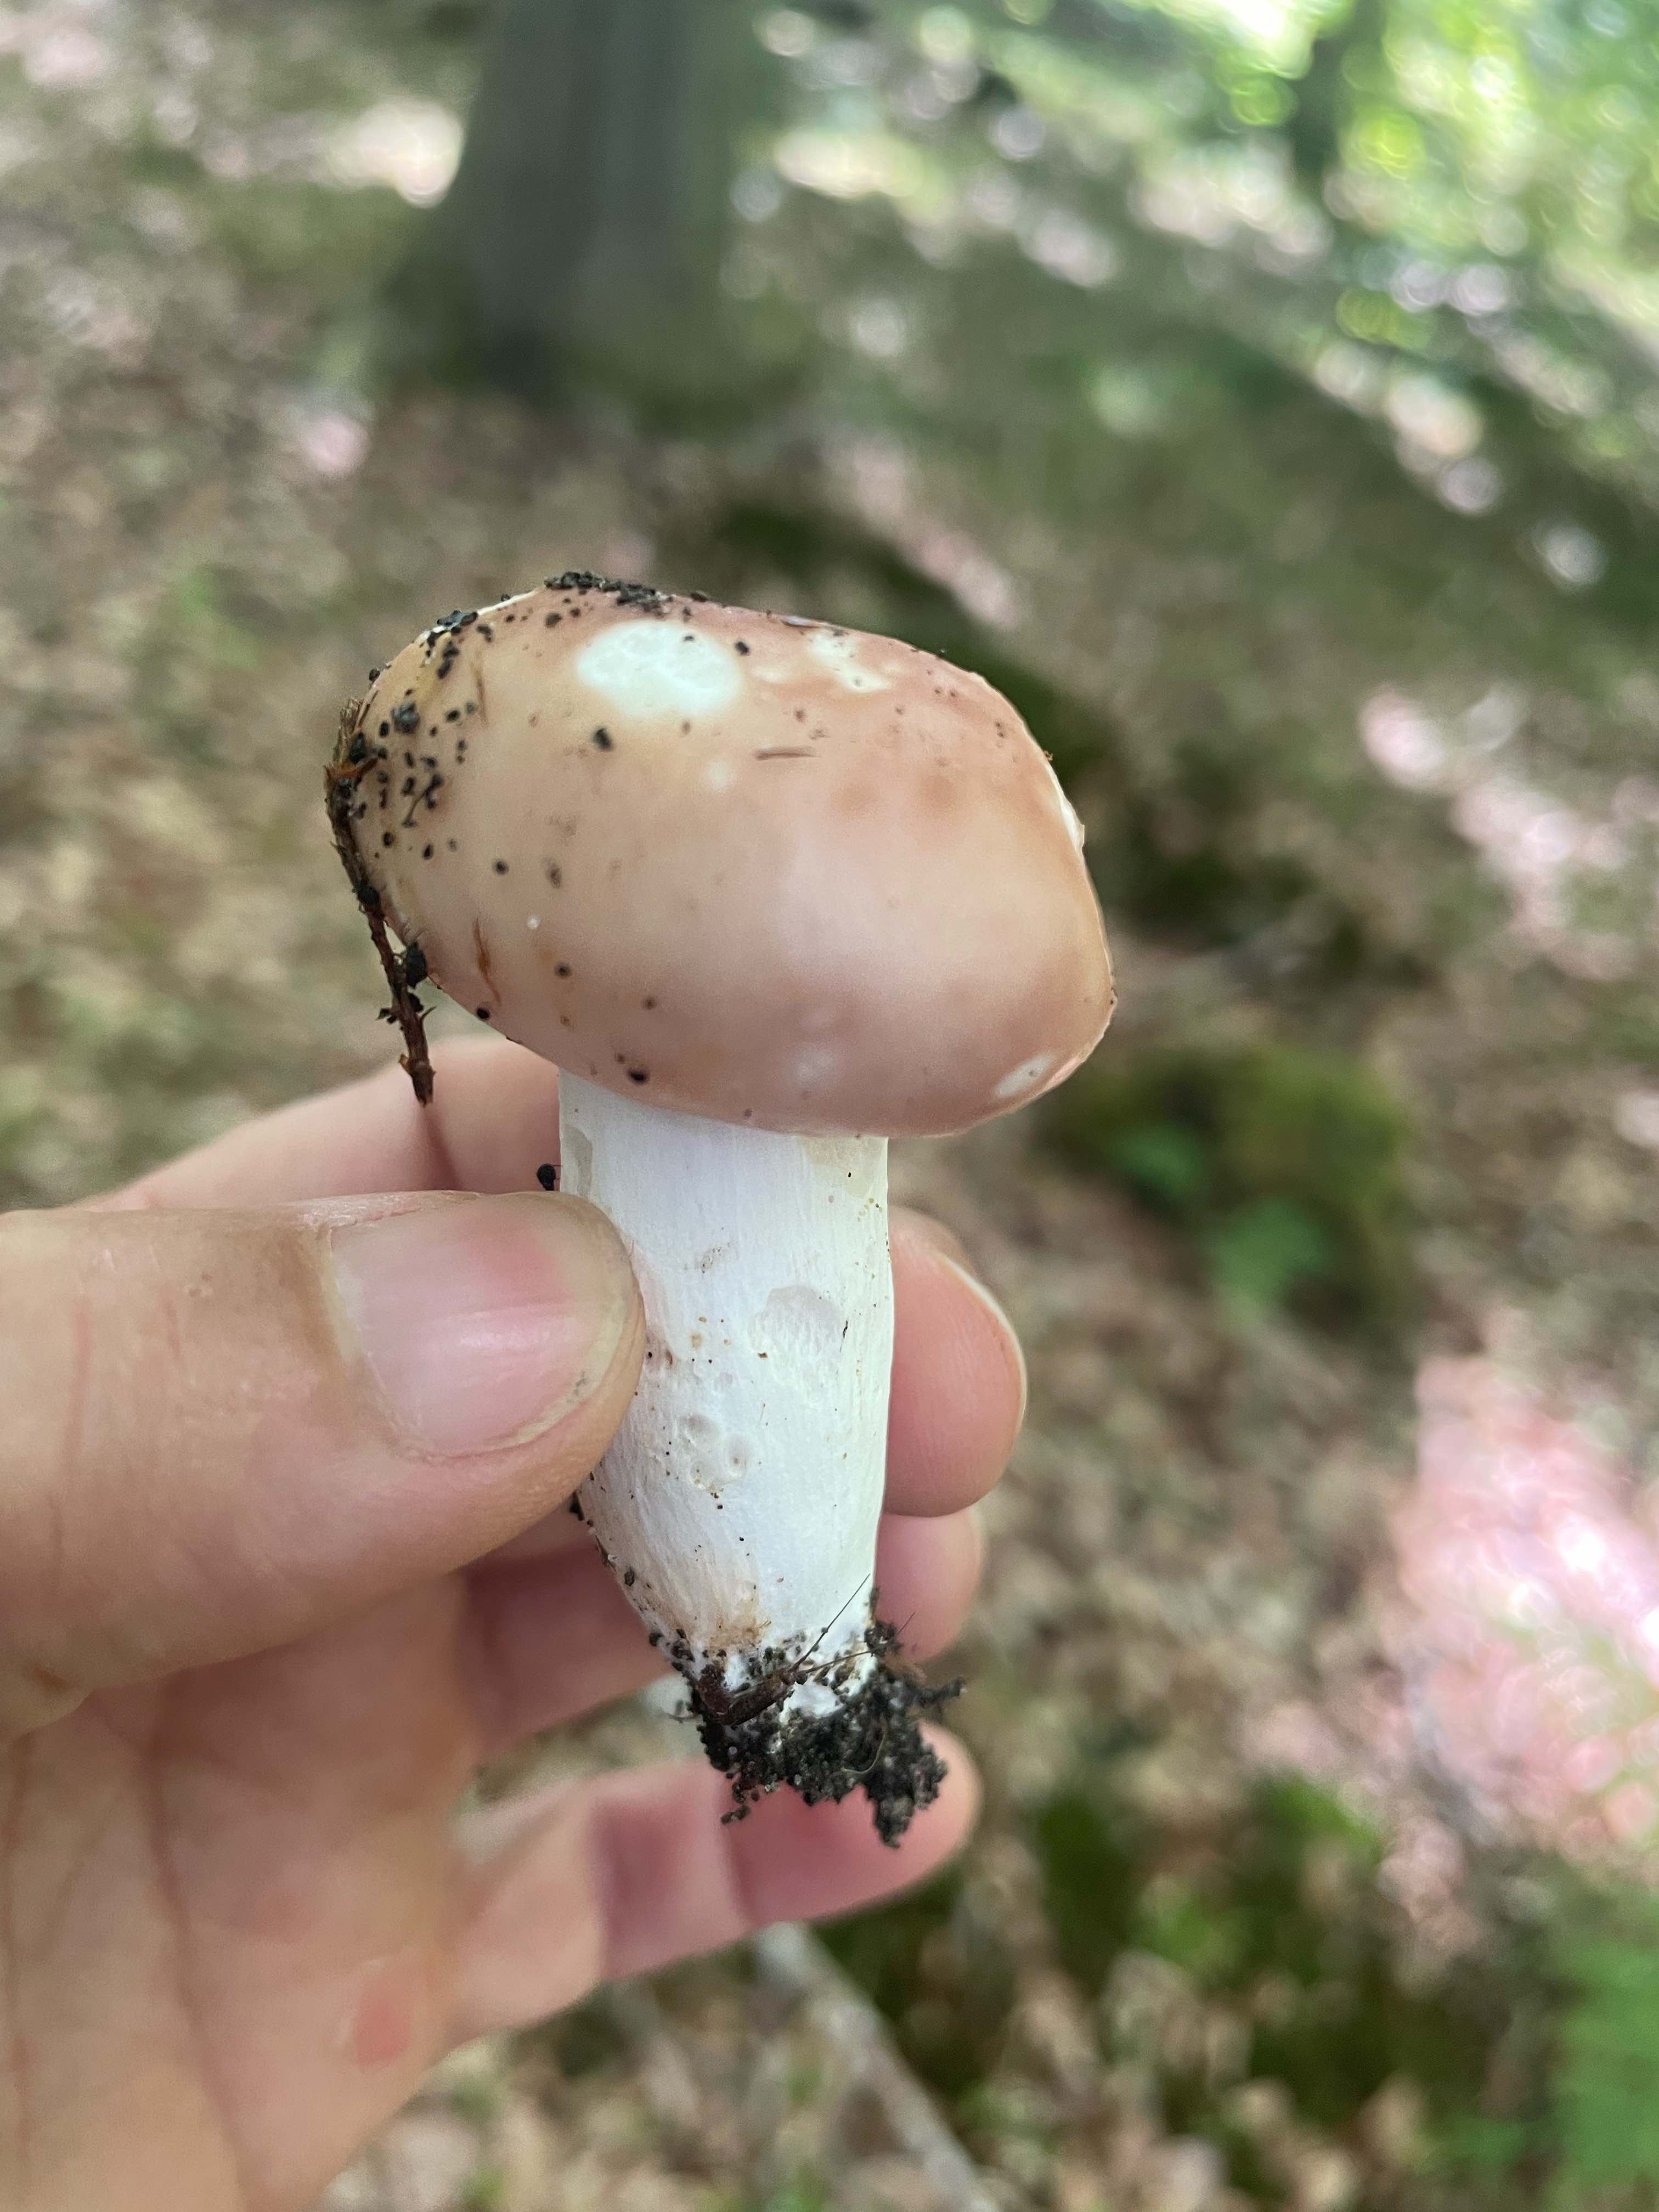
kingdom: Fungi
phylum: Basidiomycota
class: Agaricomycetes
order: Russulales
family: Russulaceae
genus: Russula
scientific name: Russula vesca
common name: spiselig skørhat
